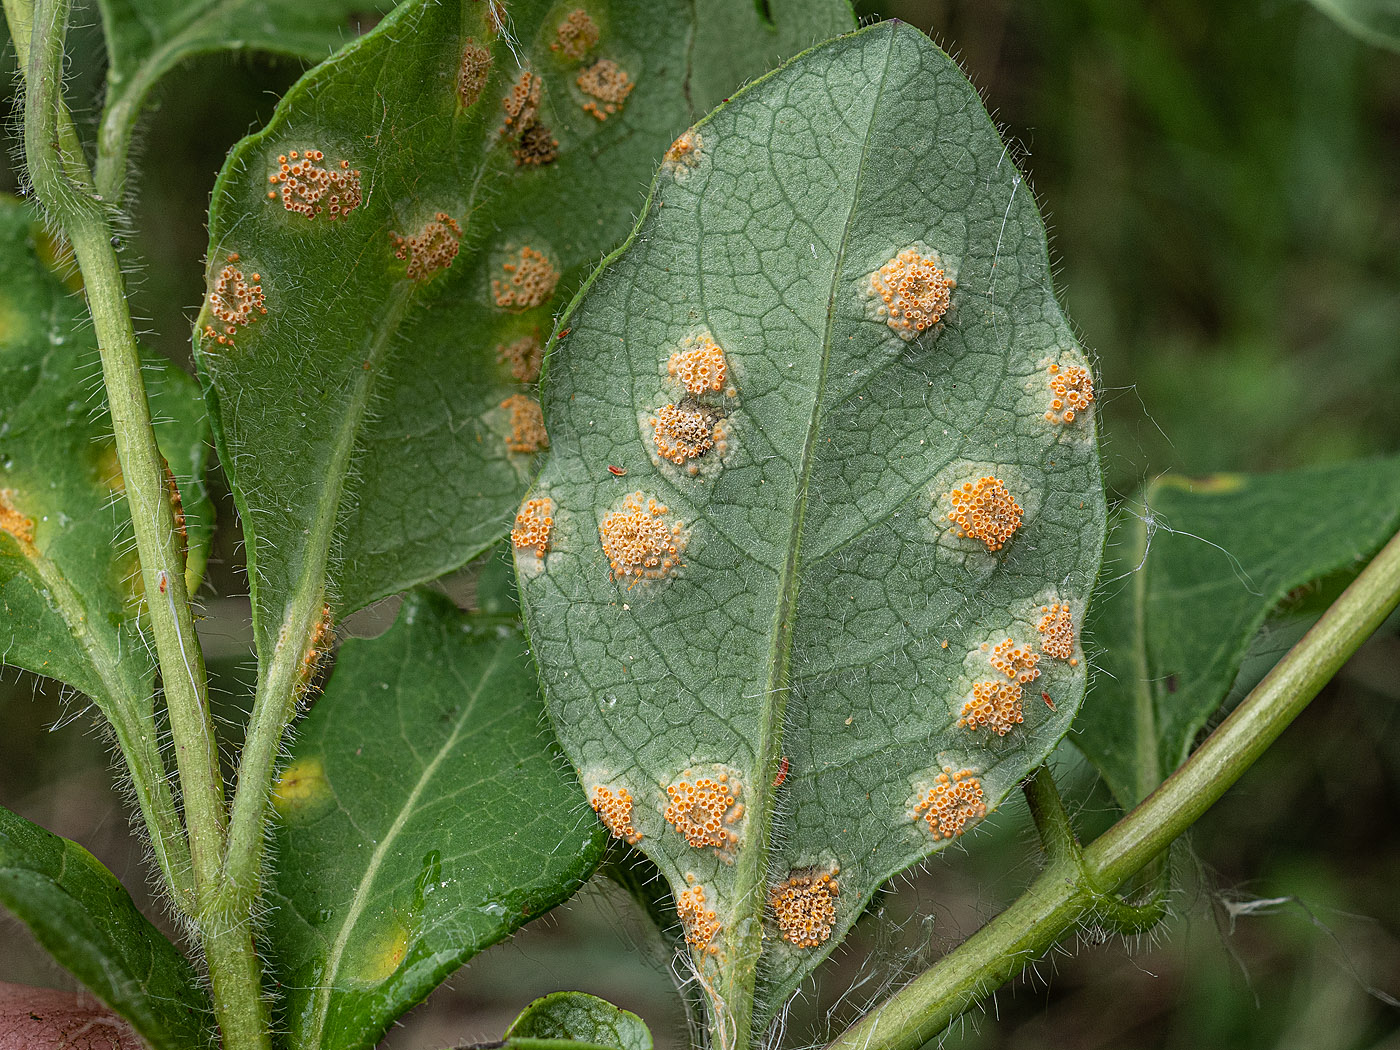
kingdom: Fungi
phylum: Basidiomycota
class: Pucciniomycetes
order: Pucciniales
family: Pucciniaceae
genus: Puccinia
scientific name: Puccinia festucae
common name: gedeblad-tvecellerust
